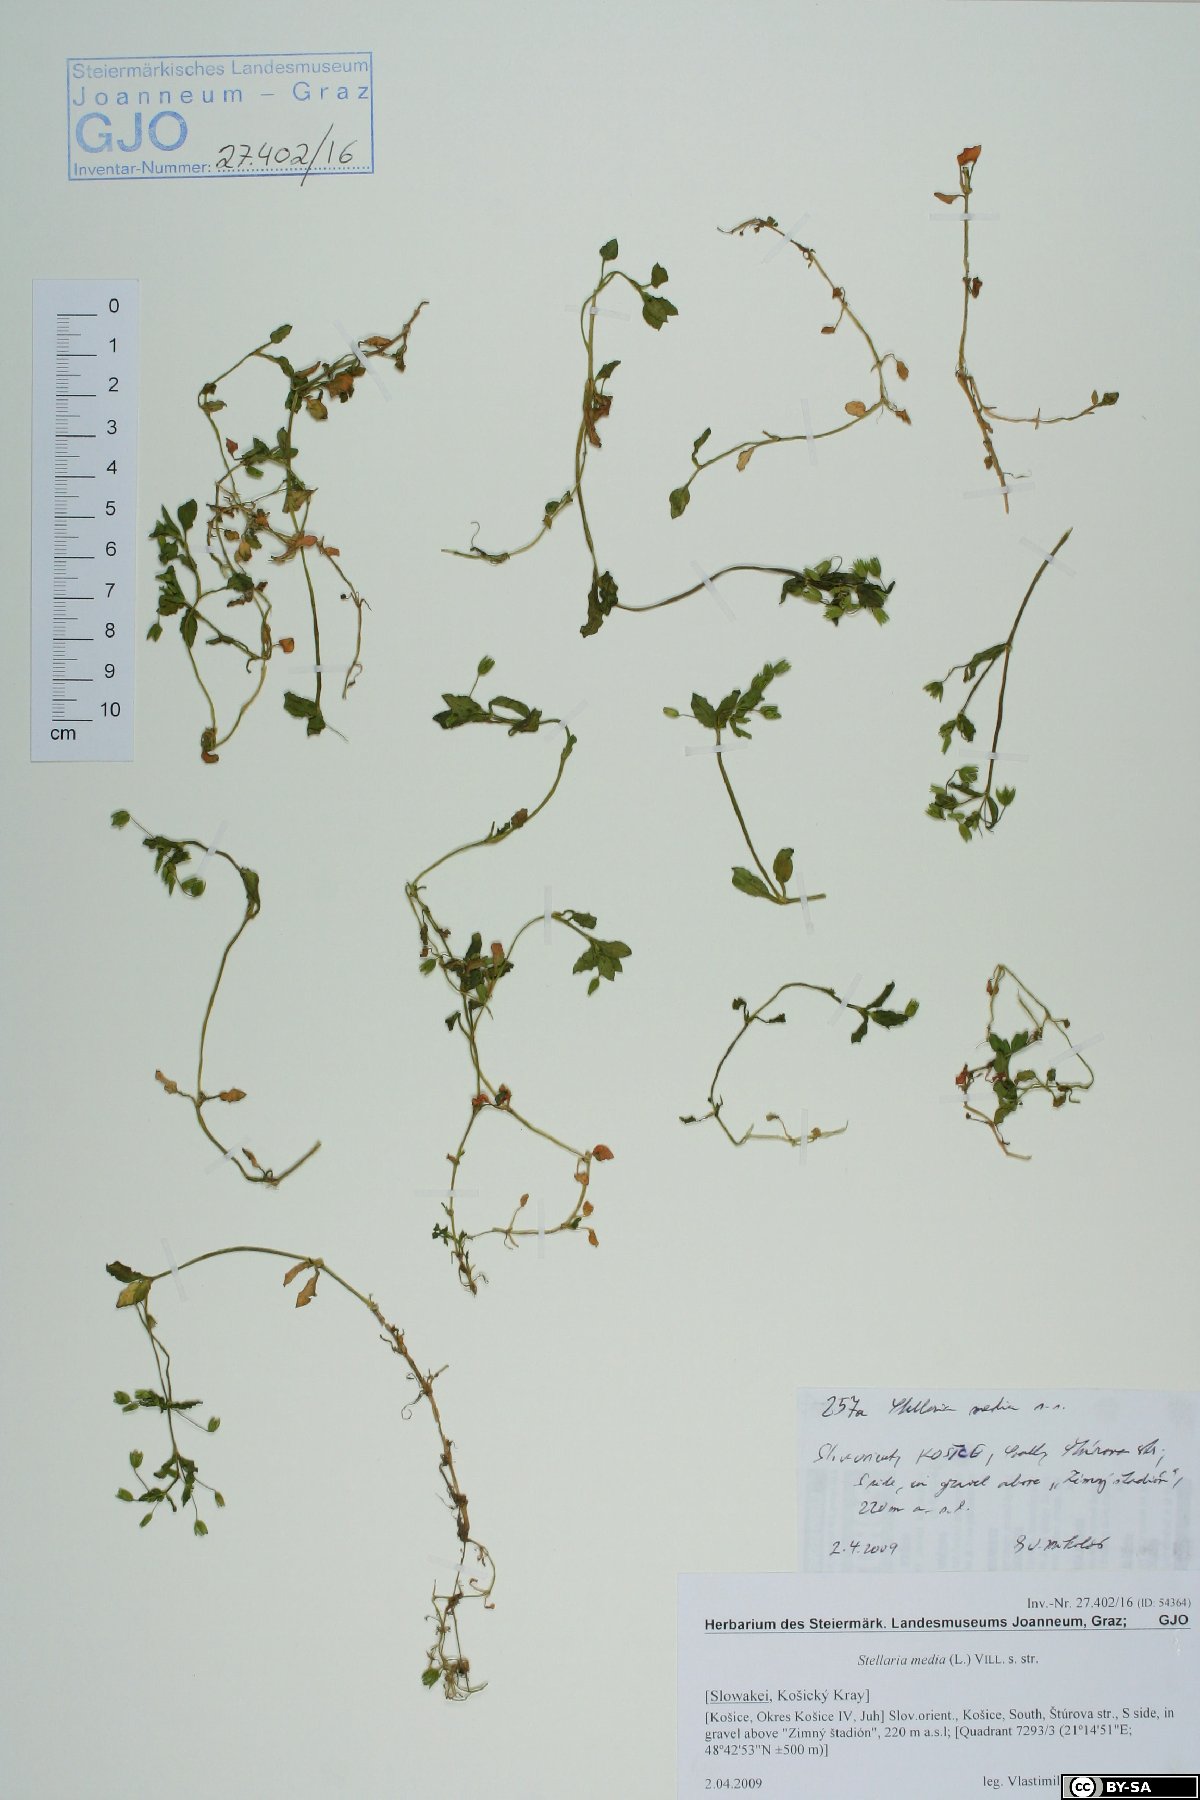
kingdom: Plantae
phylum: Tracheophyta
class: Magnoliopsida
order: Caryophyllales
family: Caryophyllaceae
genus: Stellaria
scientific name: Stellaria media
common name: Common chickweed
